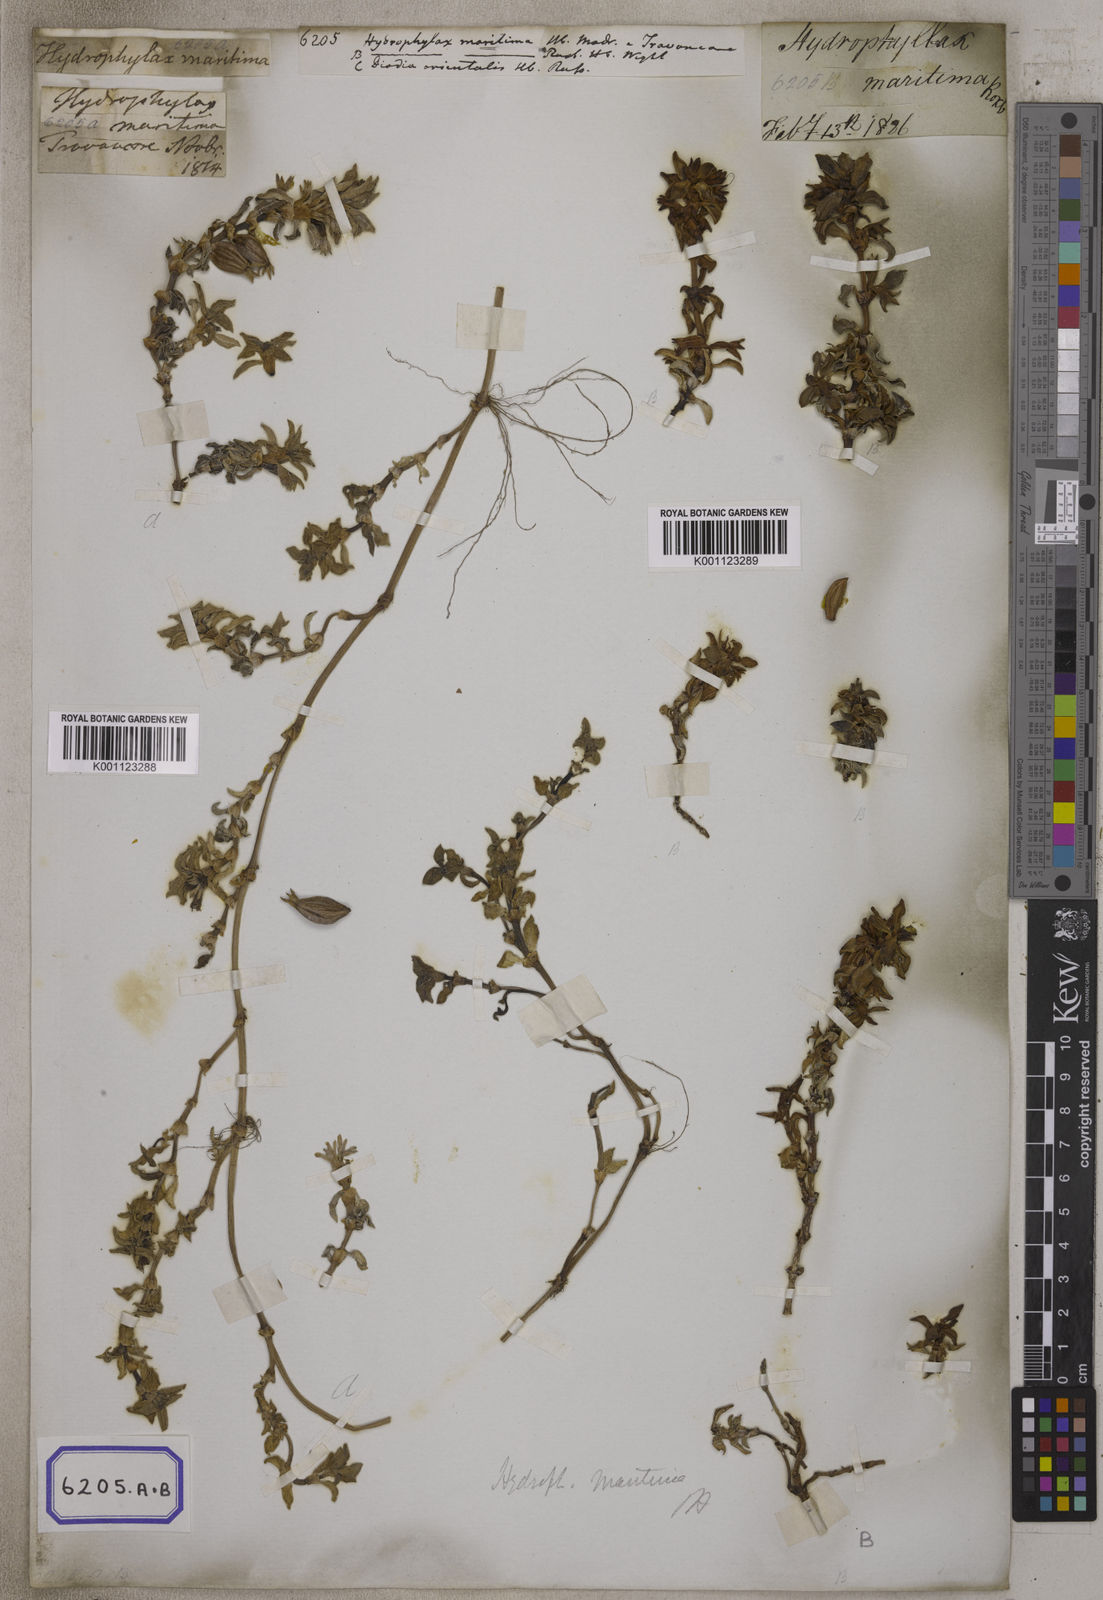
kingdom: Plantae
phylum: Tracheophyta
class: Magnoliopsida
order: Gentianales
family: Rubiaceae
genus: Hydrophylax
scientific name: Hydrophylax maritima
